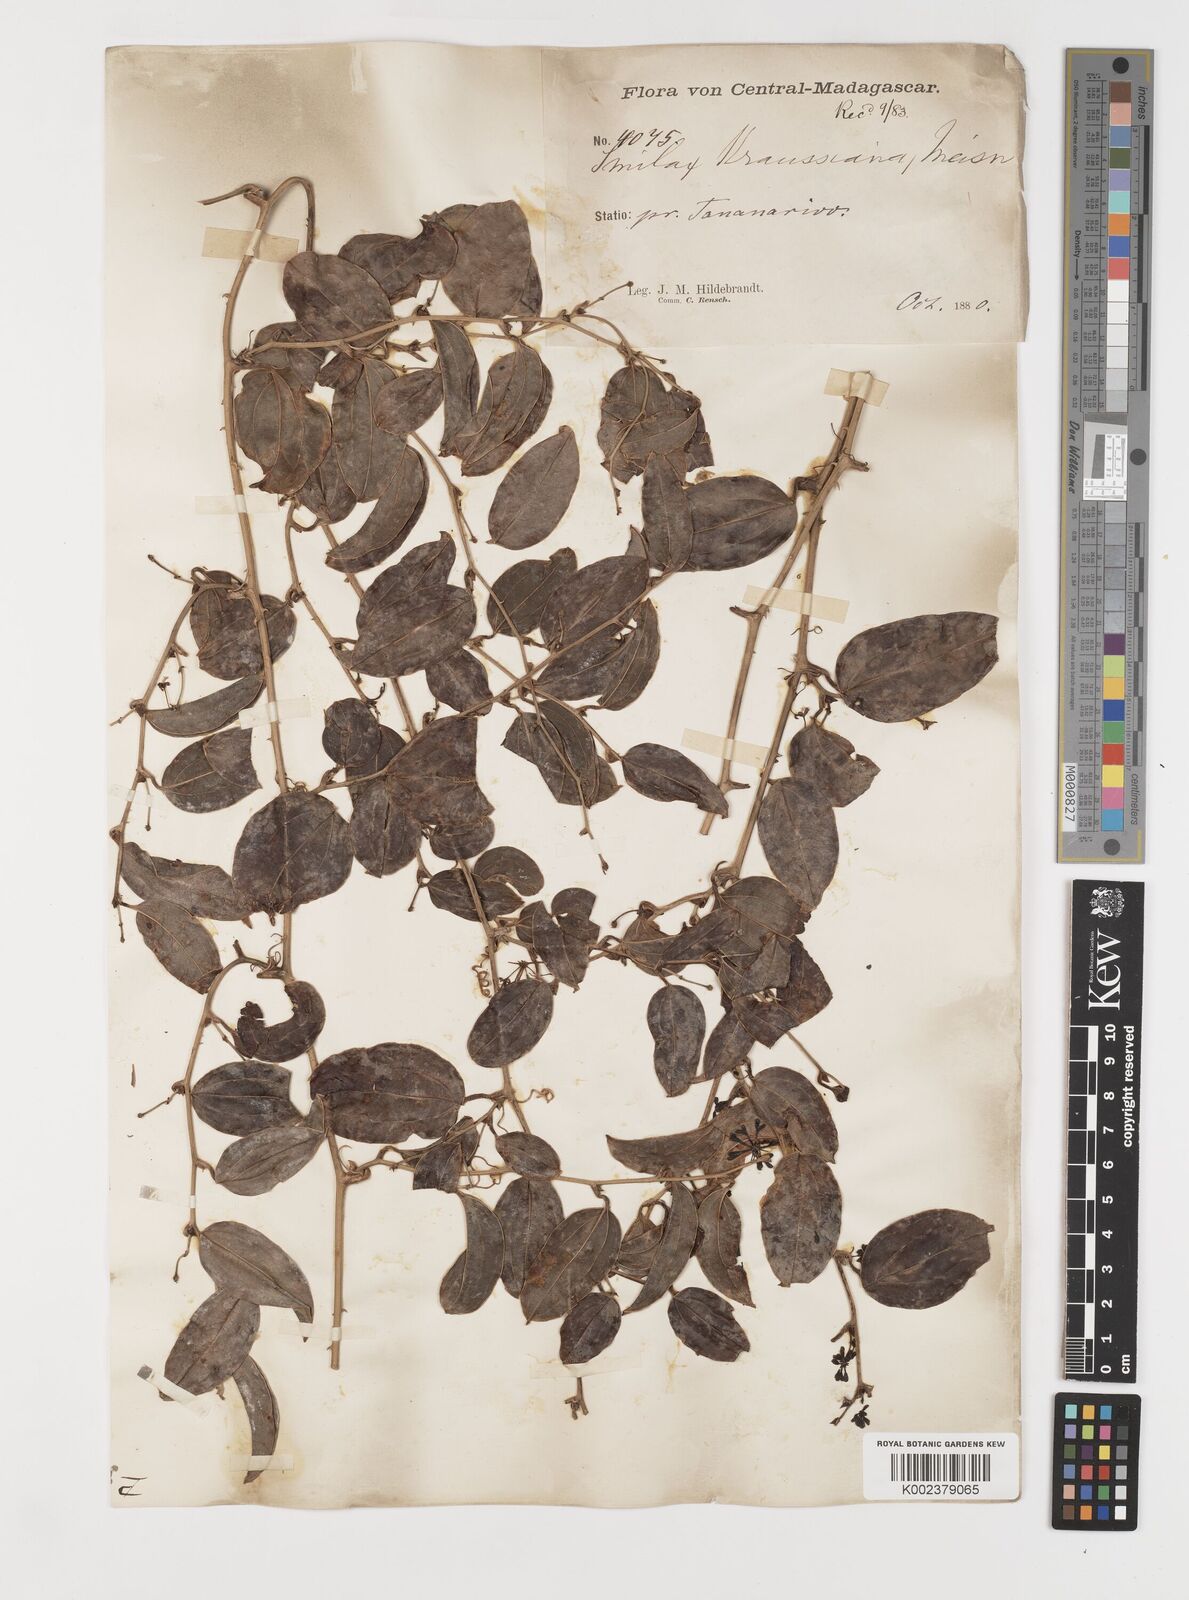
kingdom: Plantae
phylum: Tracheophyta
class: Liliopsida
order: Liliales
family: Smilacaceae
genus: Smilax
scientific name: Smilax anceps
